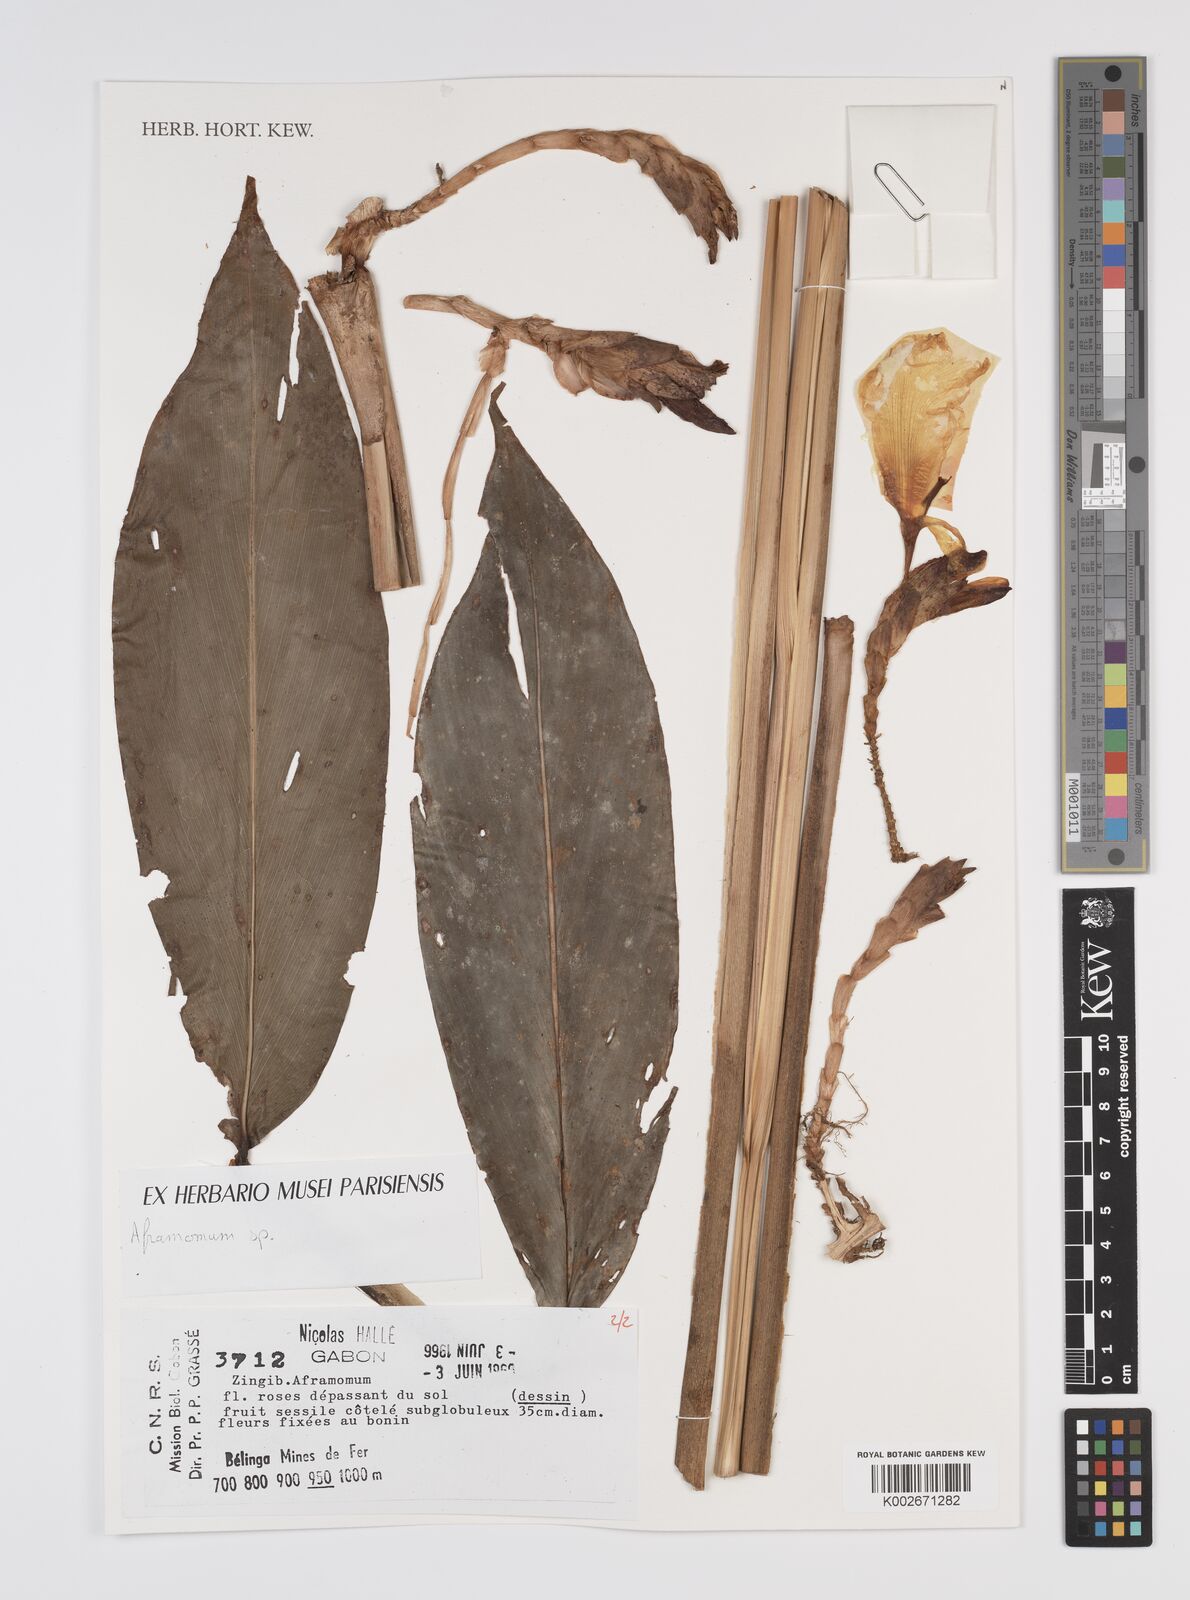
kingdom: Plantae
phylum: Tracheophyta
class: Liliopsida
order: Zingiberales
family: Zingiberaceae
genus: Aframomum
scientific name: Aframomum verrucosum
